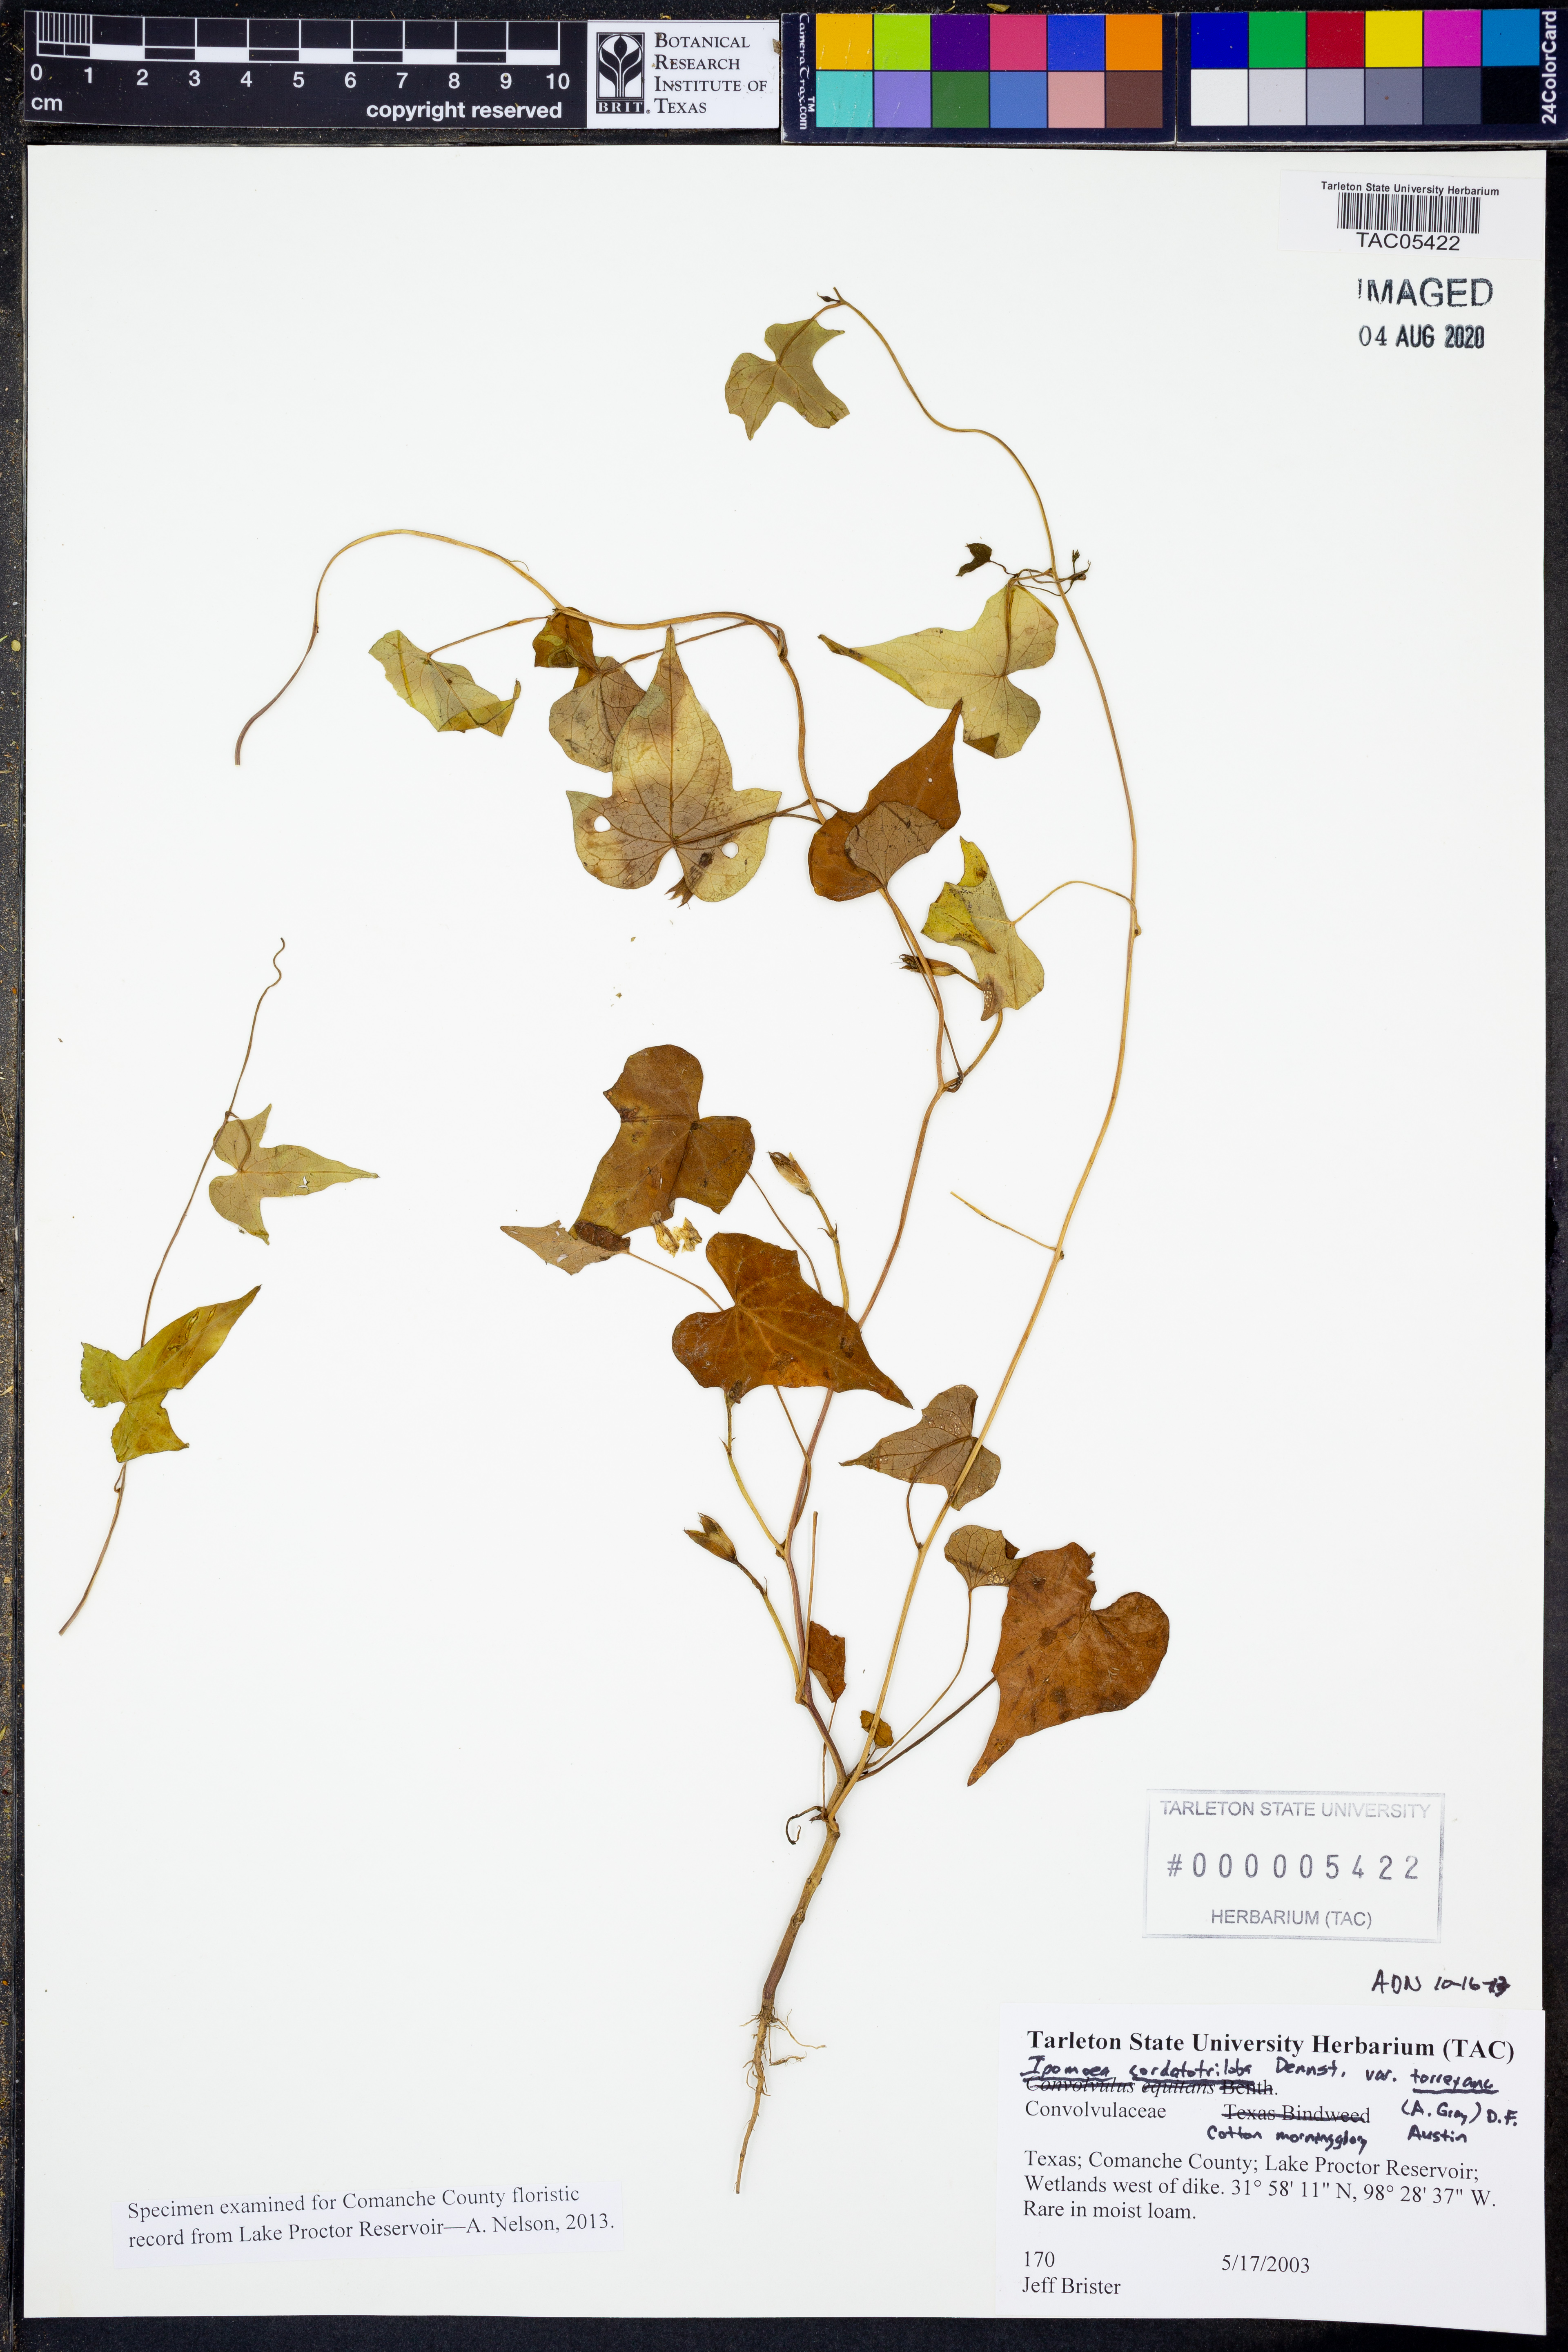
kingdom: Plantae
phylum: Tracheophyta
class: Magnoliopsida
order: Solanales
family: Convolvulaceae
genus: Ipomoea
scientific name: Ipomoea cordatotriloba
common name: Cotton morning glory
